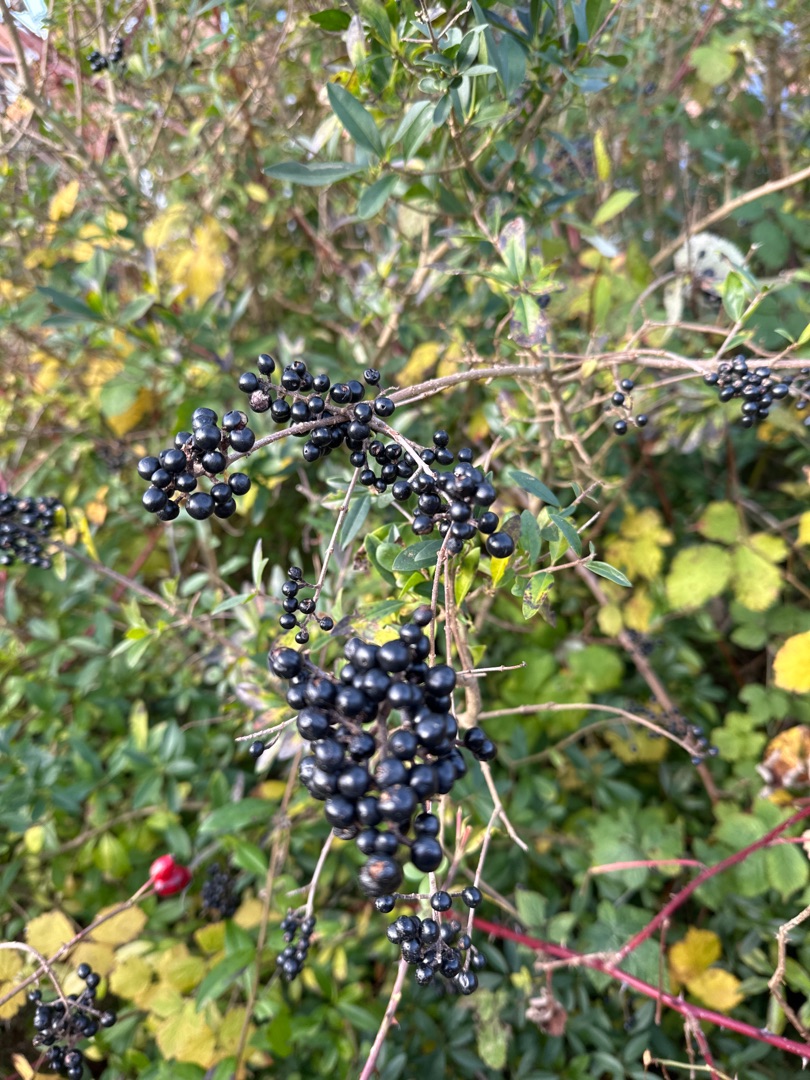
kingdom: Plantae
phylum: Tracheophyta
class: Magnoliopsida
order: Lamiales
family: Oleaceae
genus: Ligustrum
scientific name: Ligustrum vulgare
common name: Liguster
